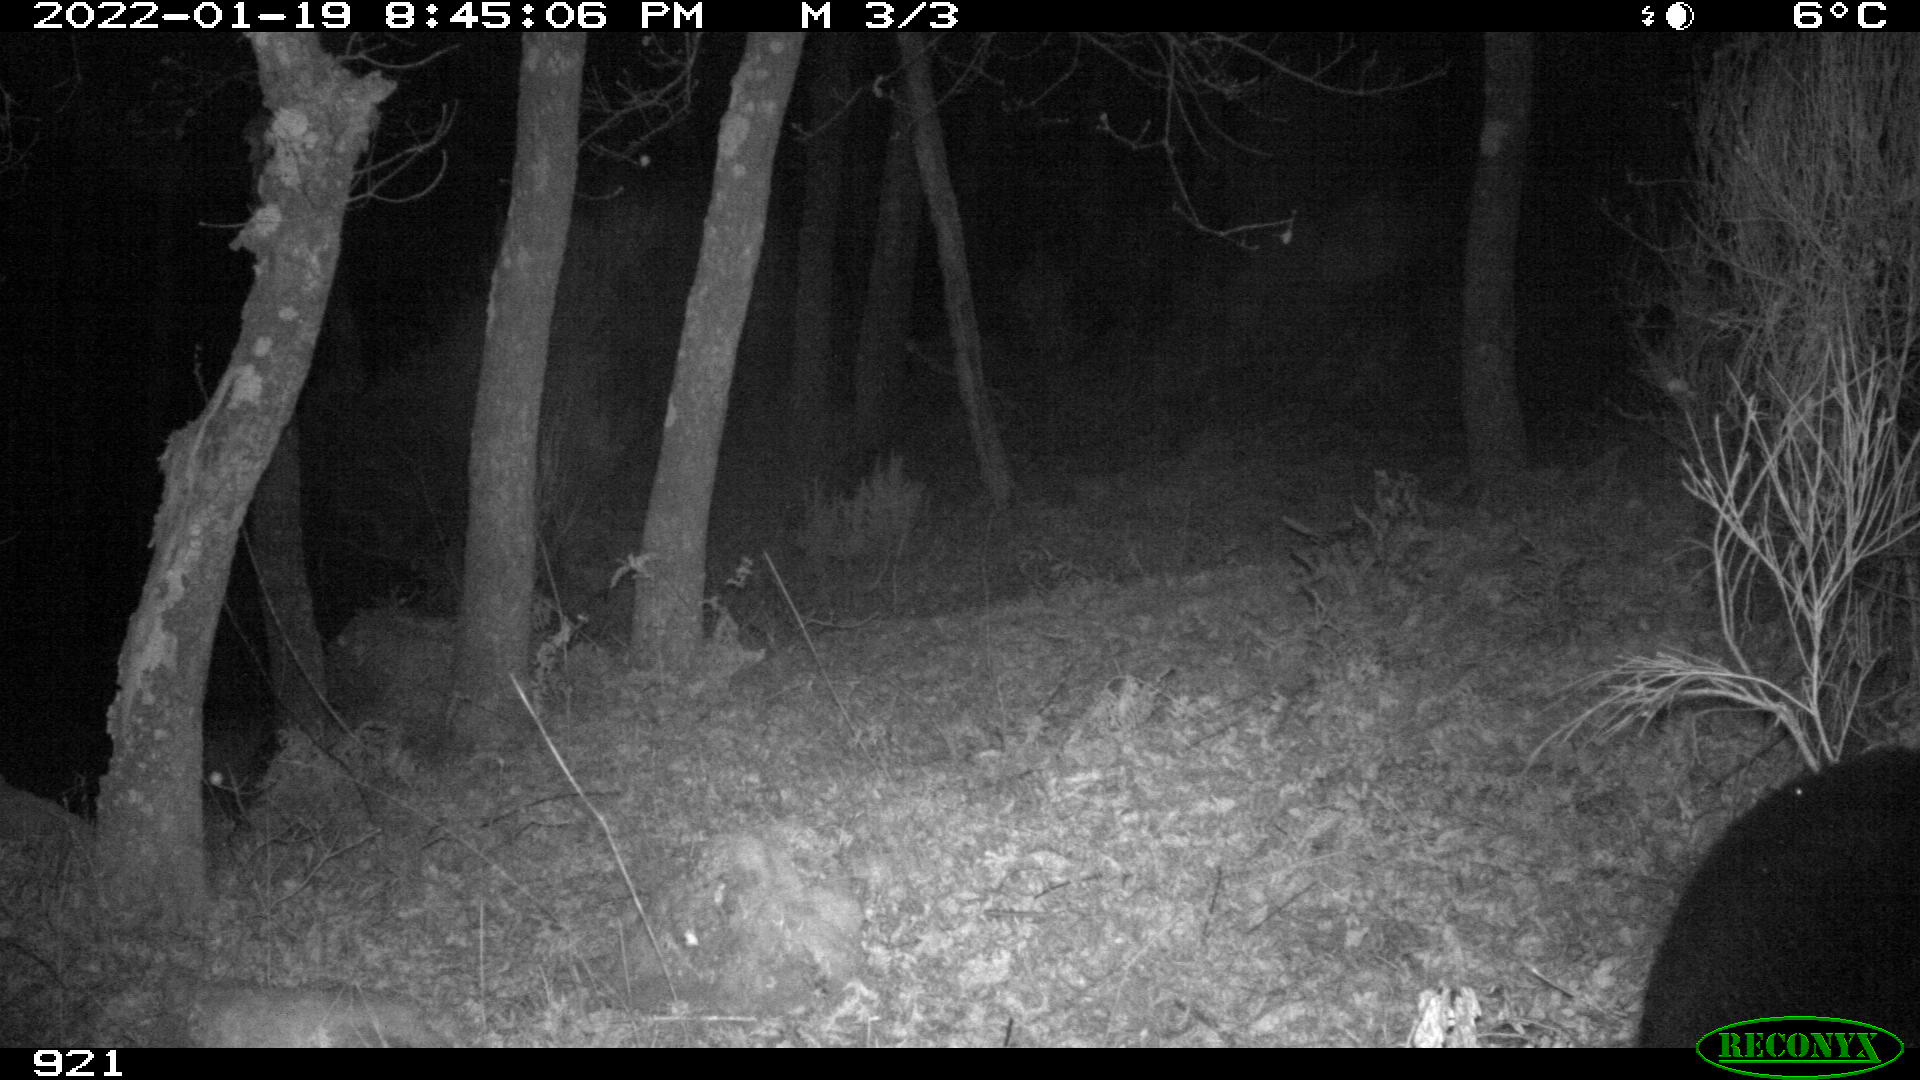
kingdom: Animalia
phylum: Chordata
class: Mammalia
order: Artiodactyla
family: Suidae
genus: Sus
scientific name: Sus scrofa
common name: Wild boar
